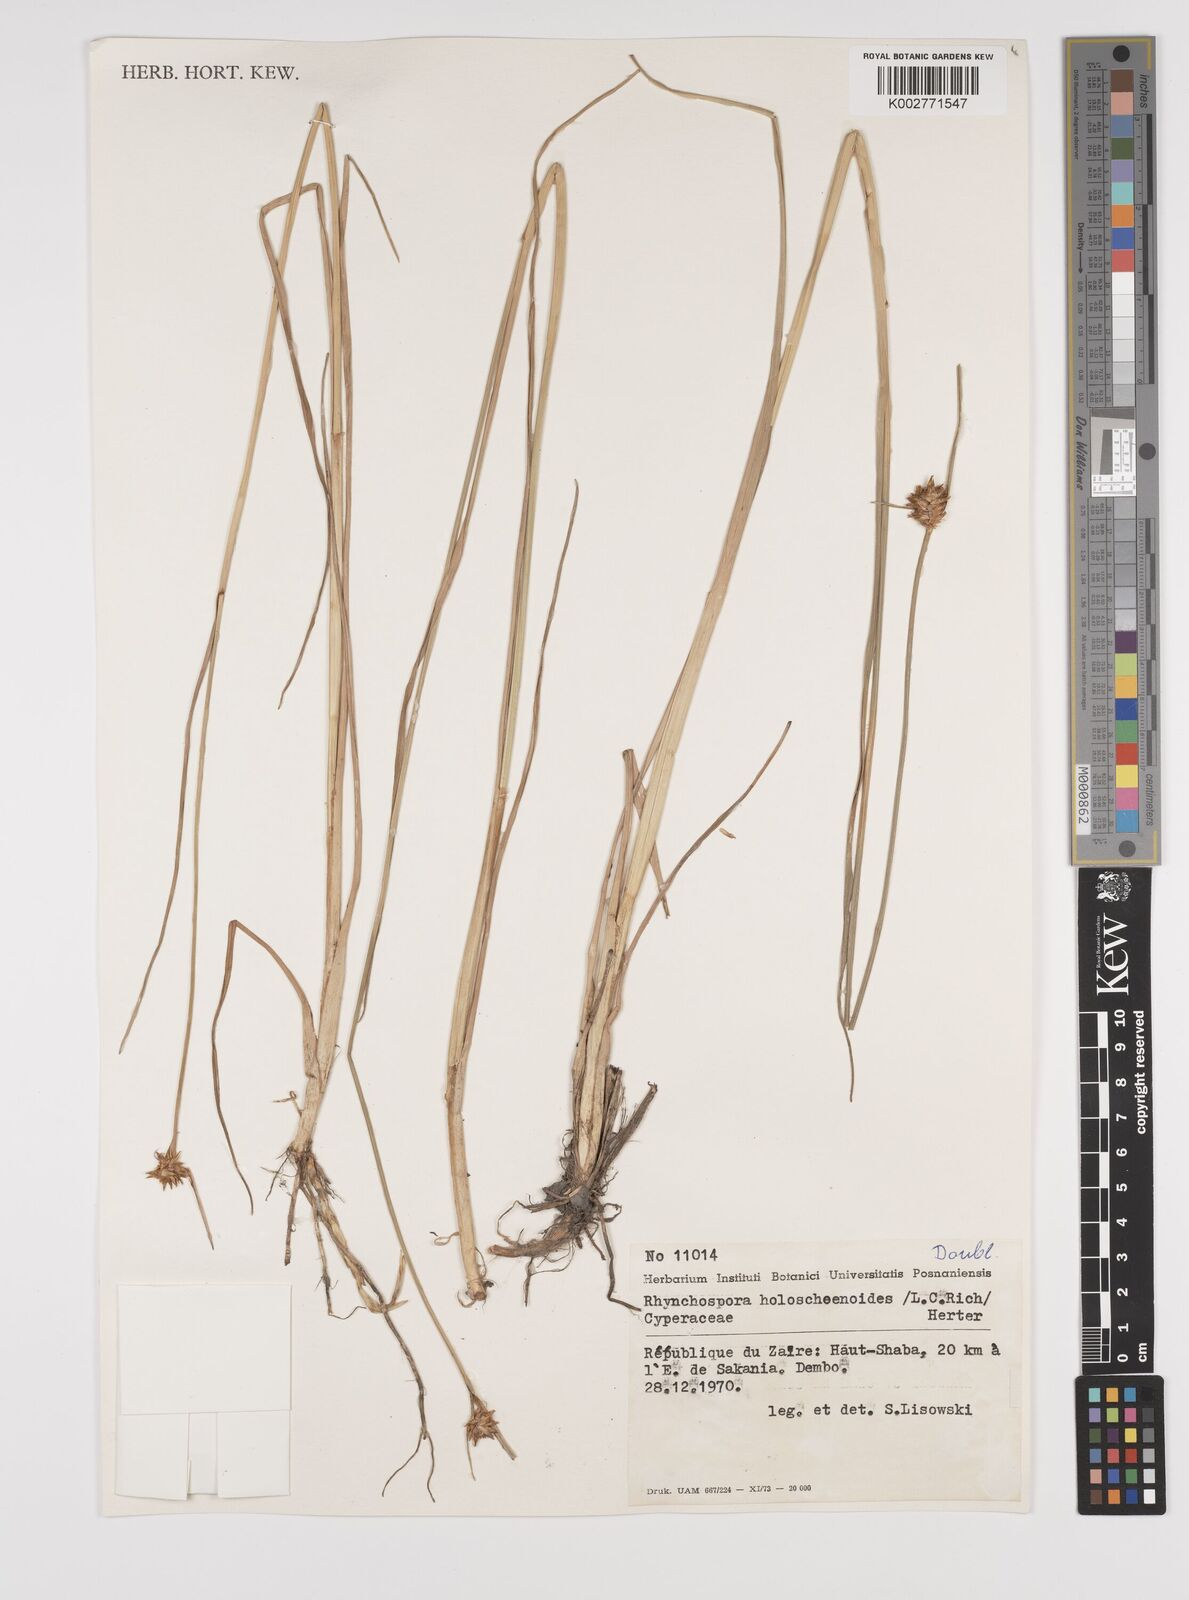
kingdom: Plantae
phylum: Tracheophyta
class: Liliopsida
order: Poales
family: Cyperaceae
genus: Rhynchospora
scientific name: Rhynchospora holoschoenoides
